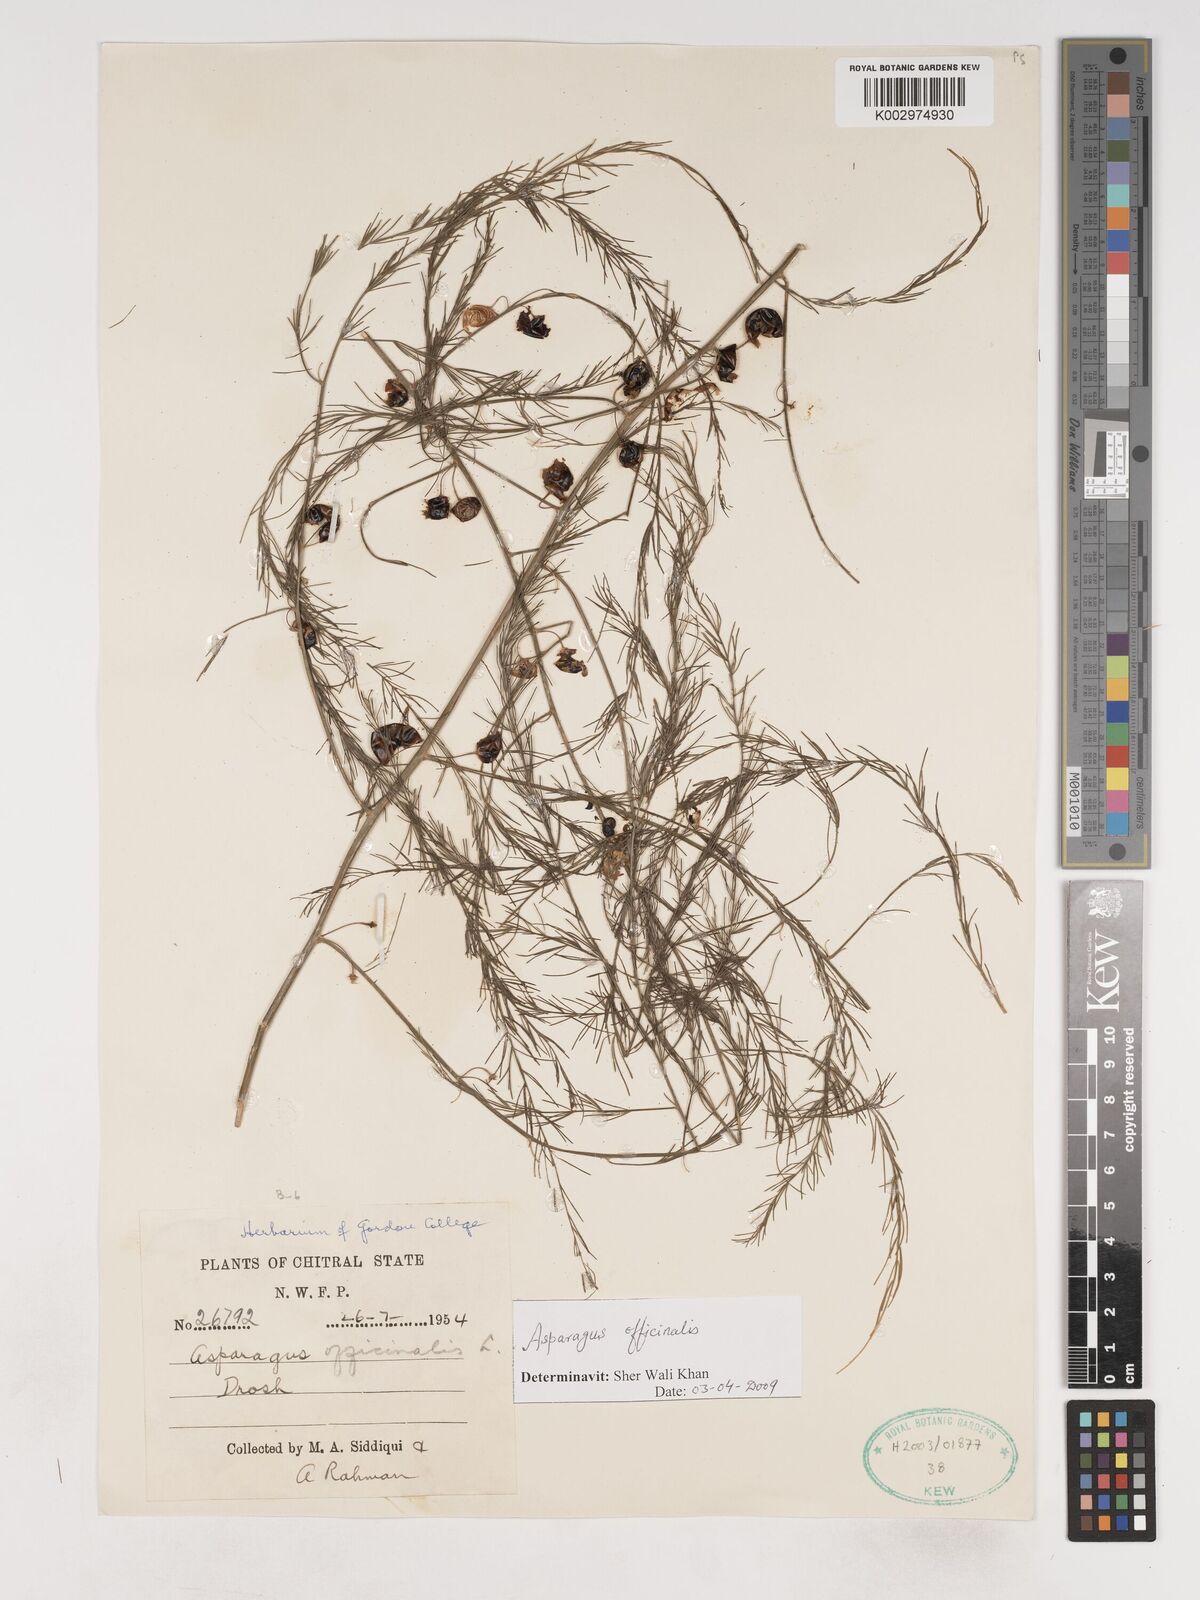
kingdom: Plantae
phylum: Tracheophyta
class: Liliopsida
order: Asparagales
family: Asparagaceae
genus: Asparagus
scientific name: Asparagus officinalis
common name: Garden asparagus
